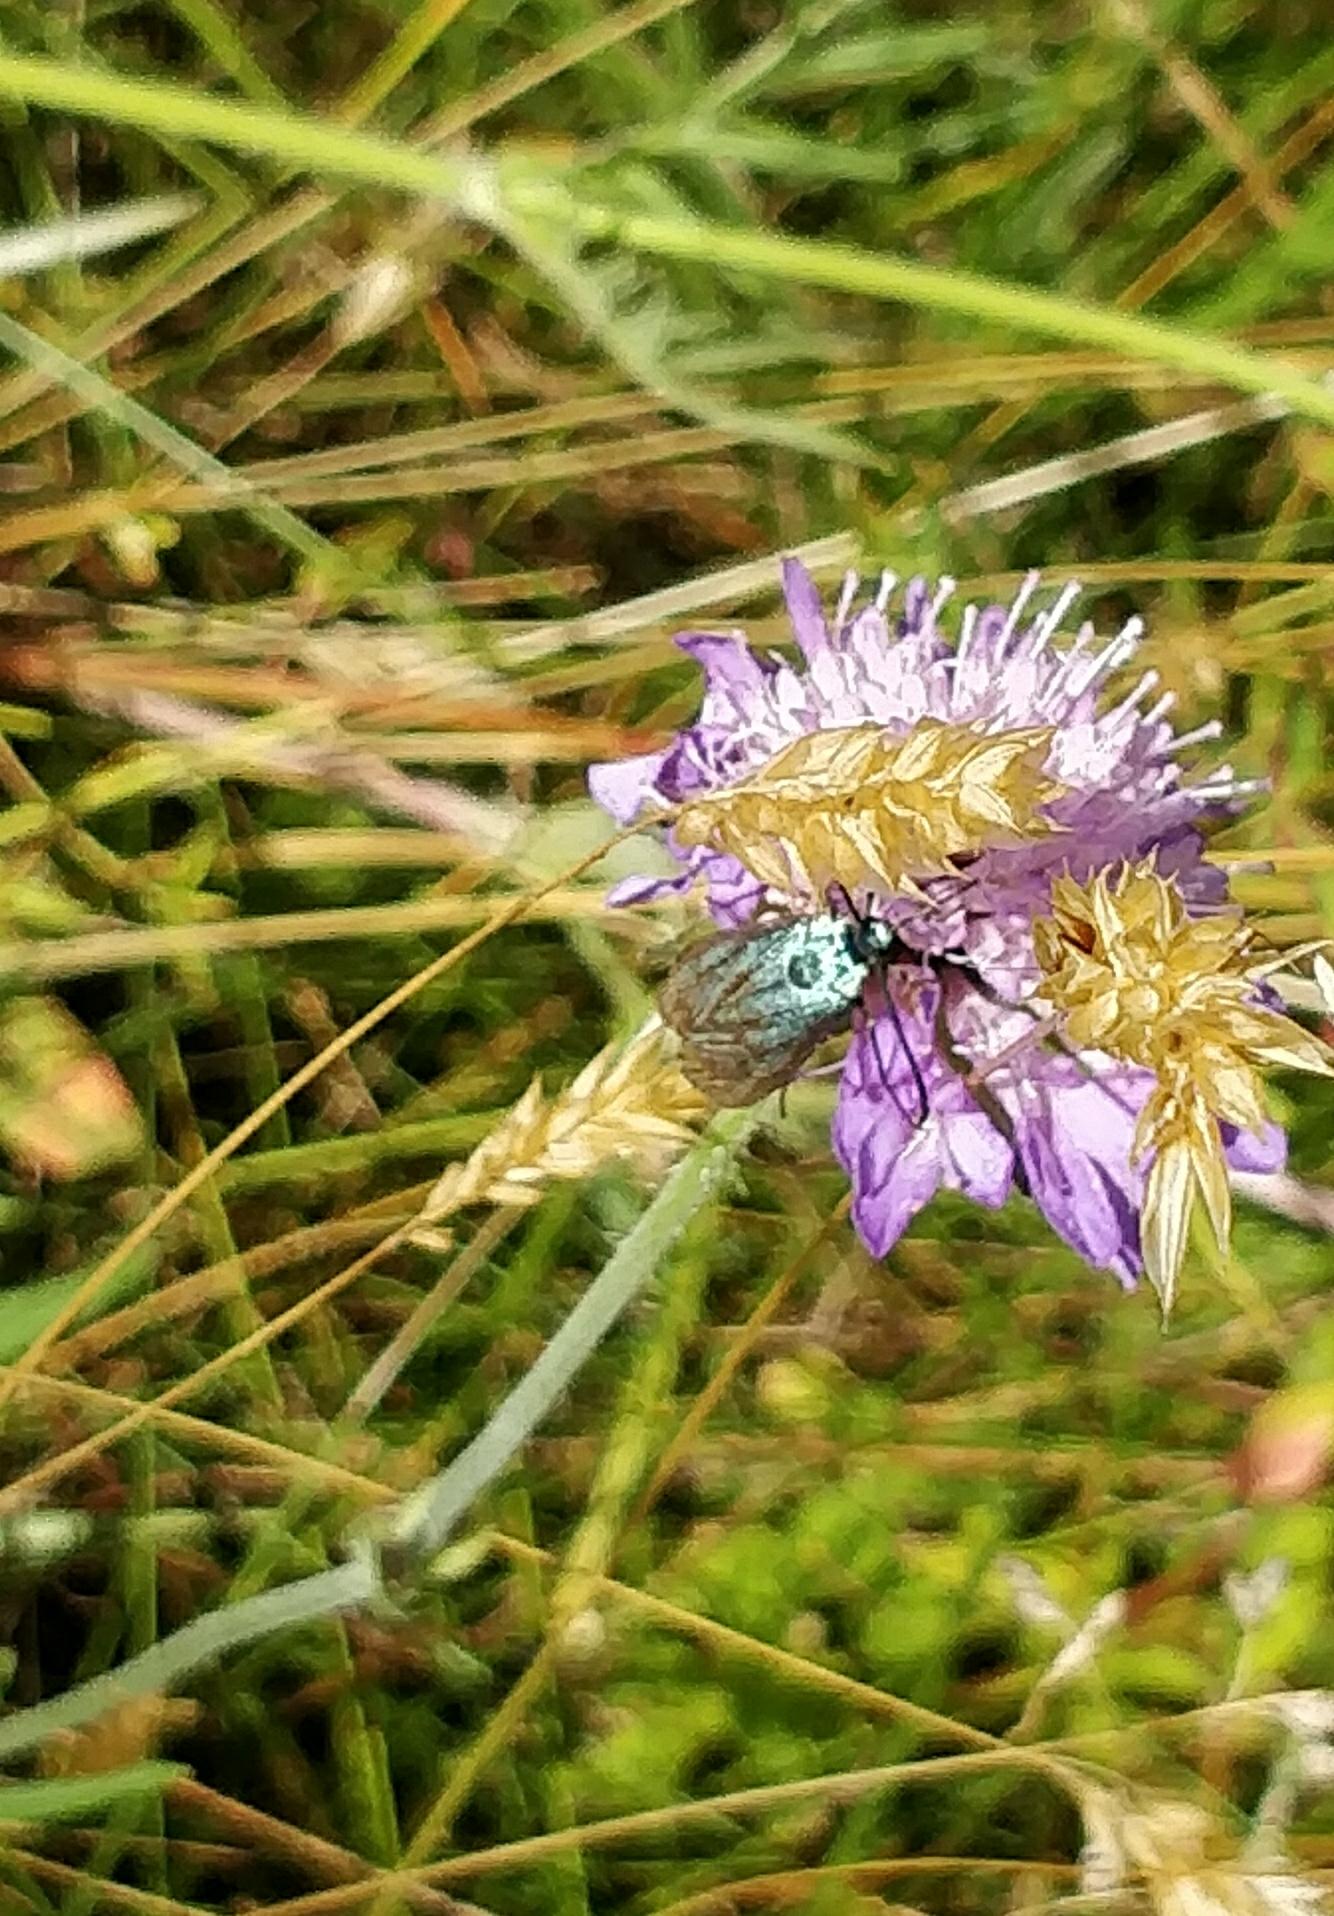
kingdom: Animalia
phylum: Arthropoda
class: Insecta
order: Lepidoptera
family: Zygaenidae
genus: Adscita
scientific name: Adscita statices
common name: Metalvinge
